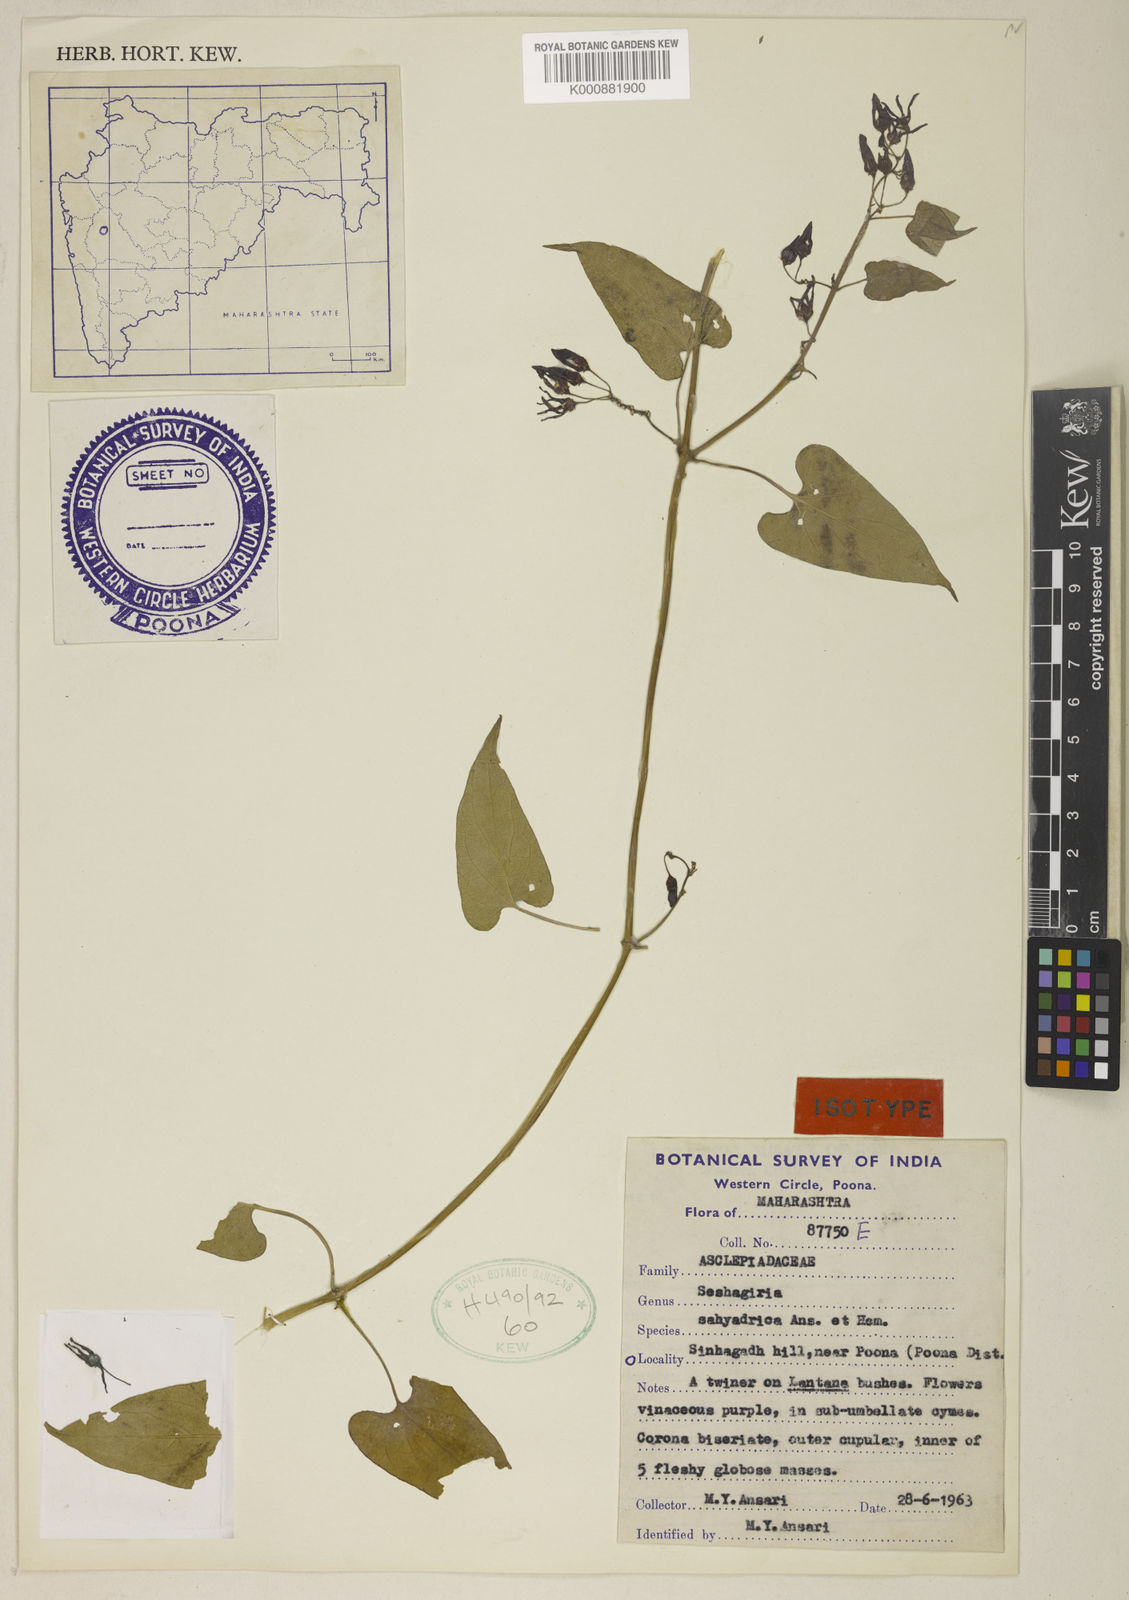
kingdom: Plantae
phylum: Tracheophyta
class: Magnoliopsida
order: Gentianales
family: Apocynaceae
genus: Cynanchum
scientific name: Cynanchum sahyadricum
